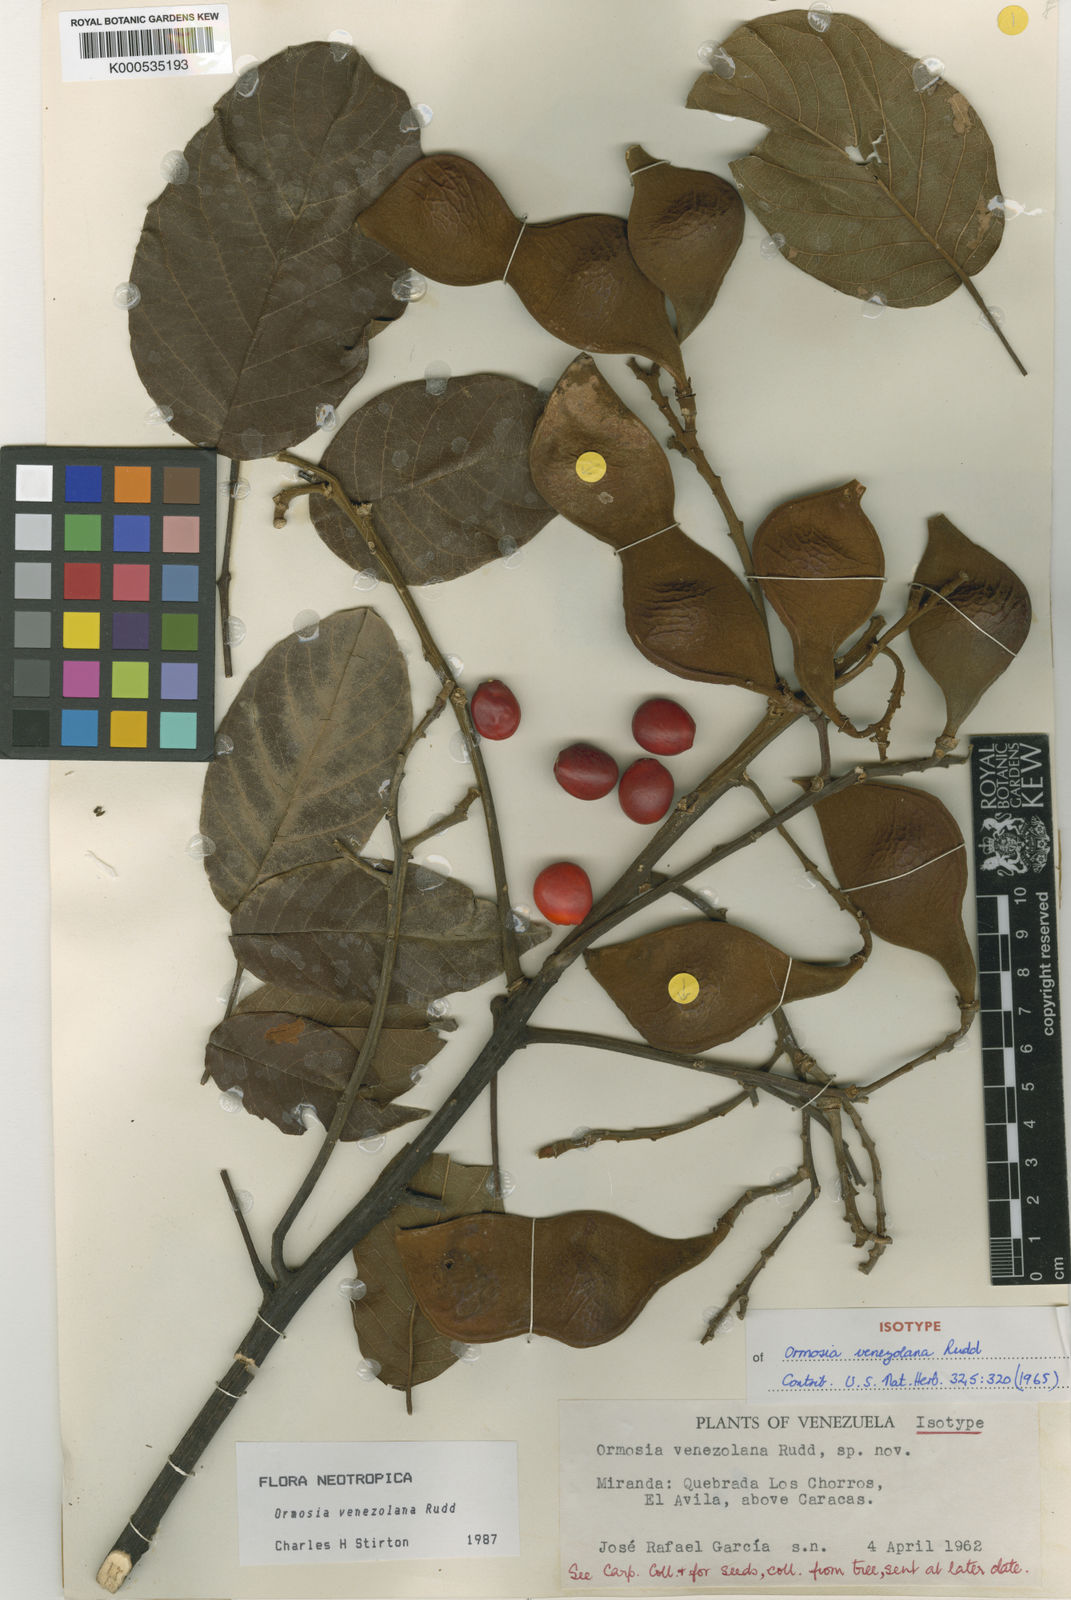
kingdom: Plantae
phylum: Tracheophyta
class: Magnoliopsida
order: Fabales
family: Fabaceae
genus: Ormosia
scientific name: Ormosia venezolana
